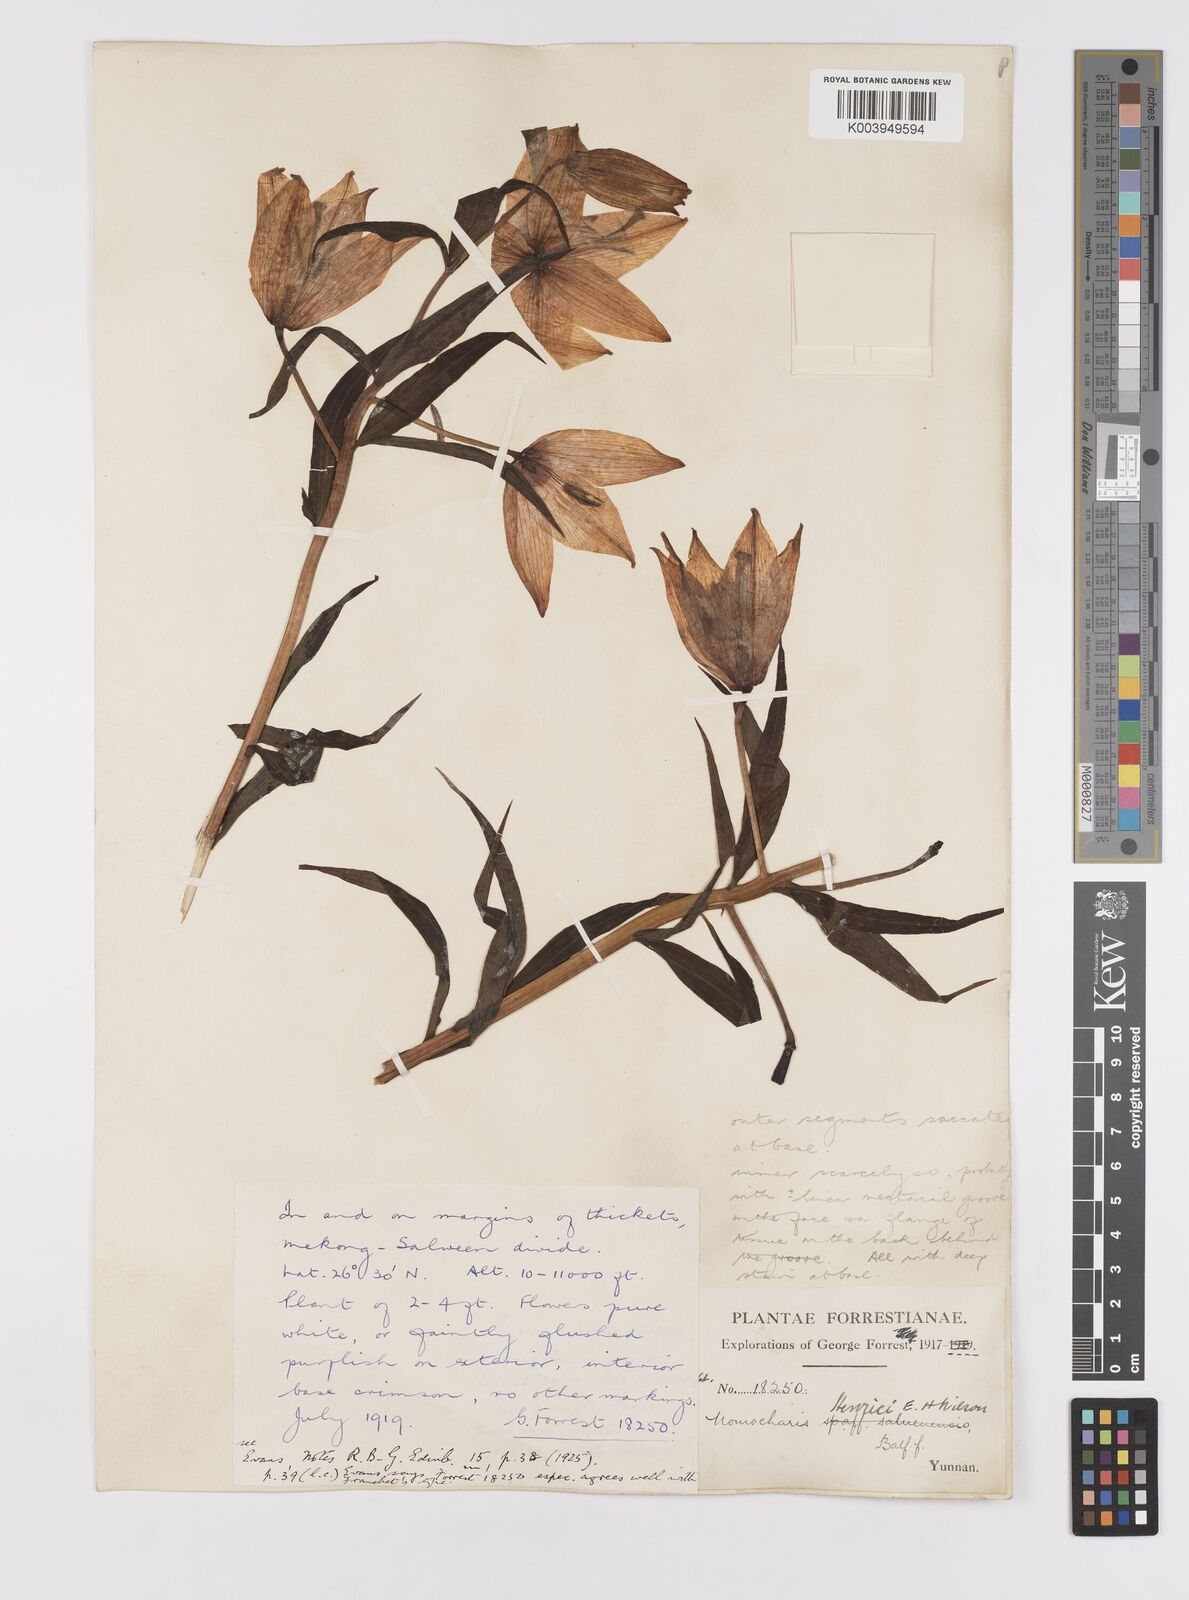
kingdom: Plantae
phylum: Tracheophyta
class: Liliopsida
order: Liliales
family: Liliaceae
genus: Lilium
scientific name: Lilium henrici
